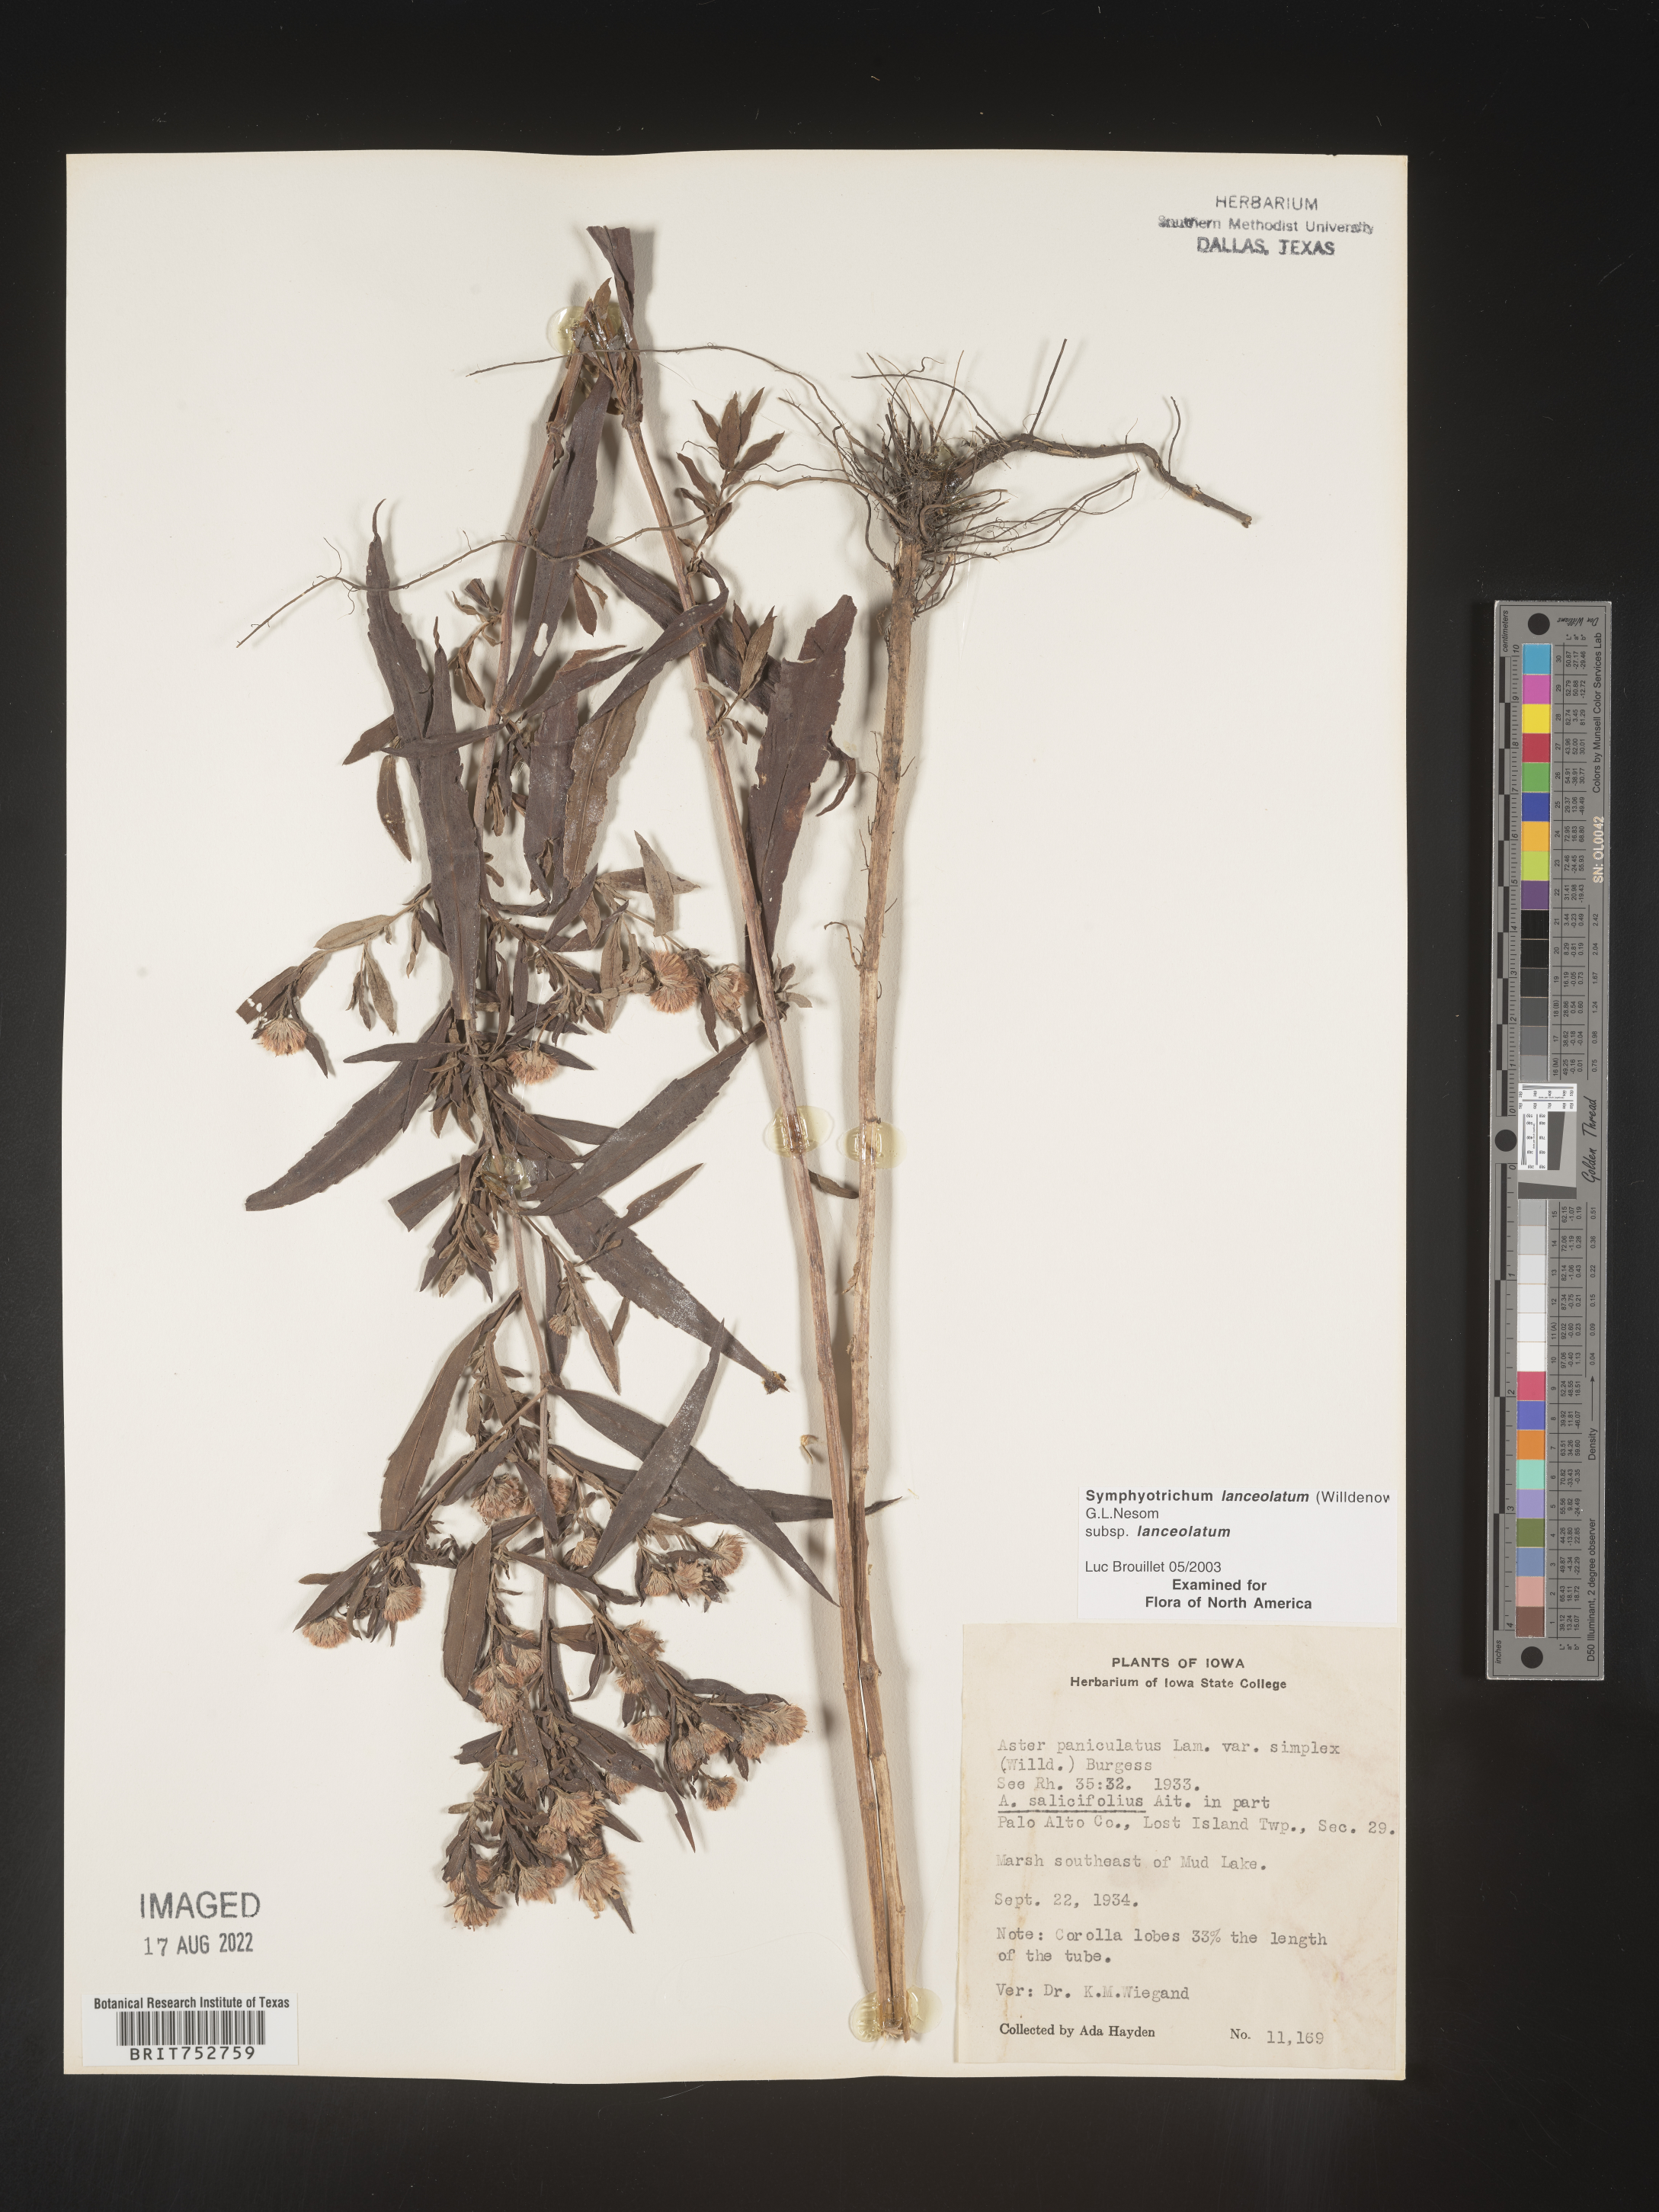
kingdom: Plantae
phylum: Tracheophyta
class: Magnoliopsida
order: Asterales
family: Asteraceae
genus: Symphyotrichum
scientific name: Symphyotrichum lanceolatum
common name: Panicled aster
